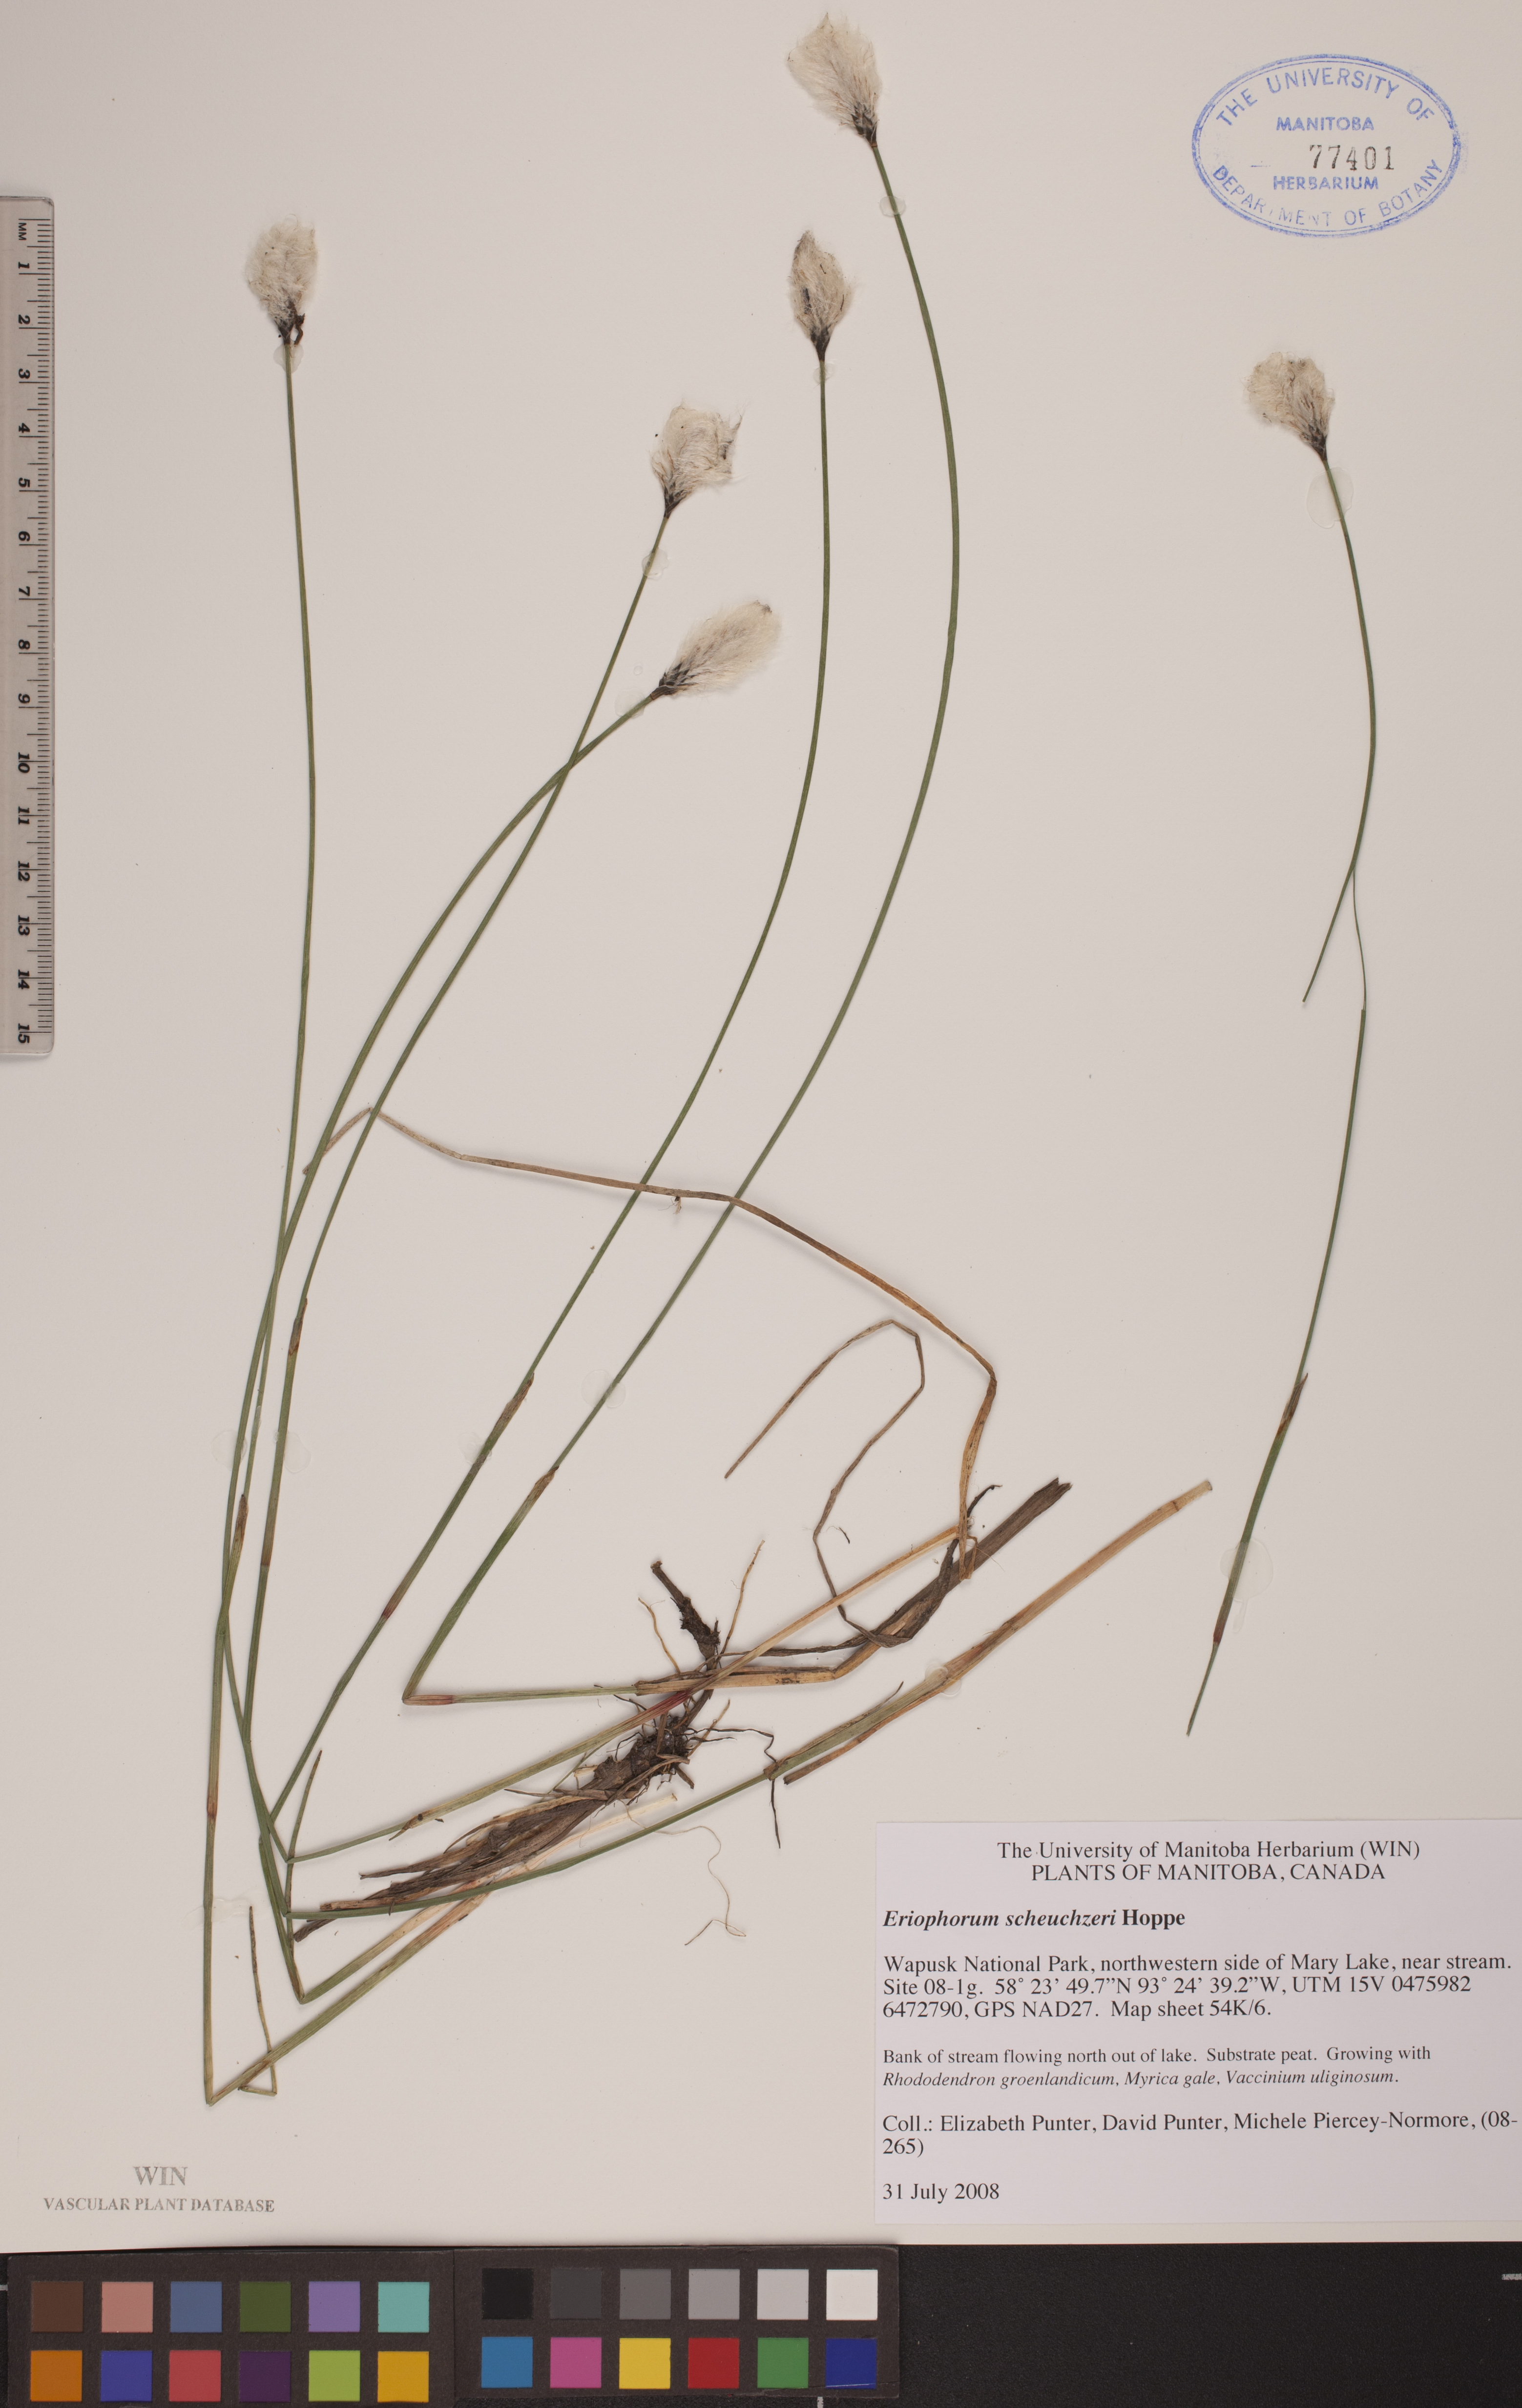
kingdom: Plantae
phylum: Tracheophyta
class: Liliopsida
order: Poales
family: Cyperaceae
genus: Eriophorum
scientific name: Eriophorum scheuchzeri
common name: Scheuchzer's cottongrass
